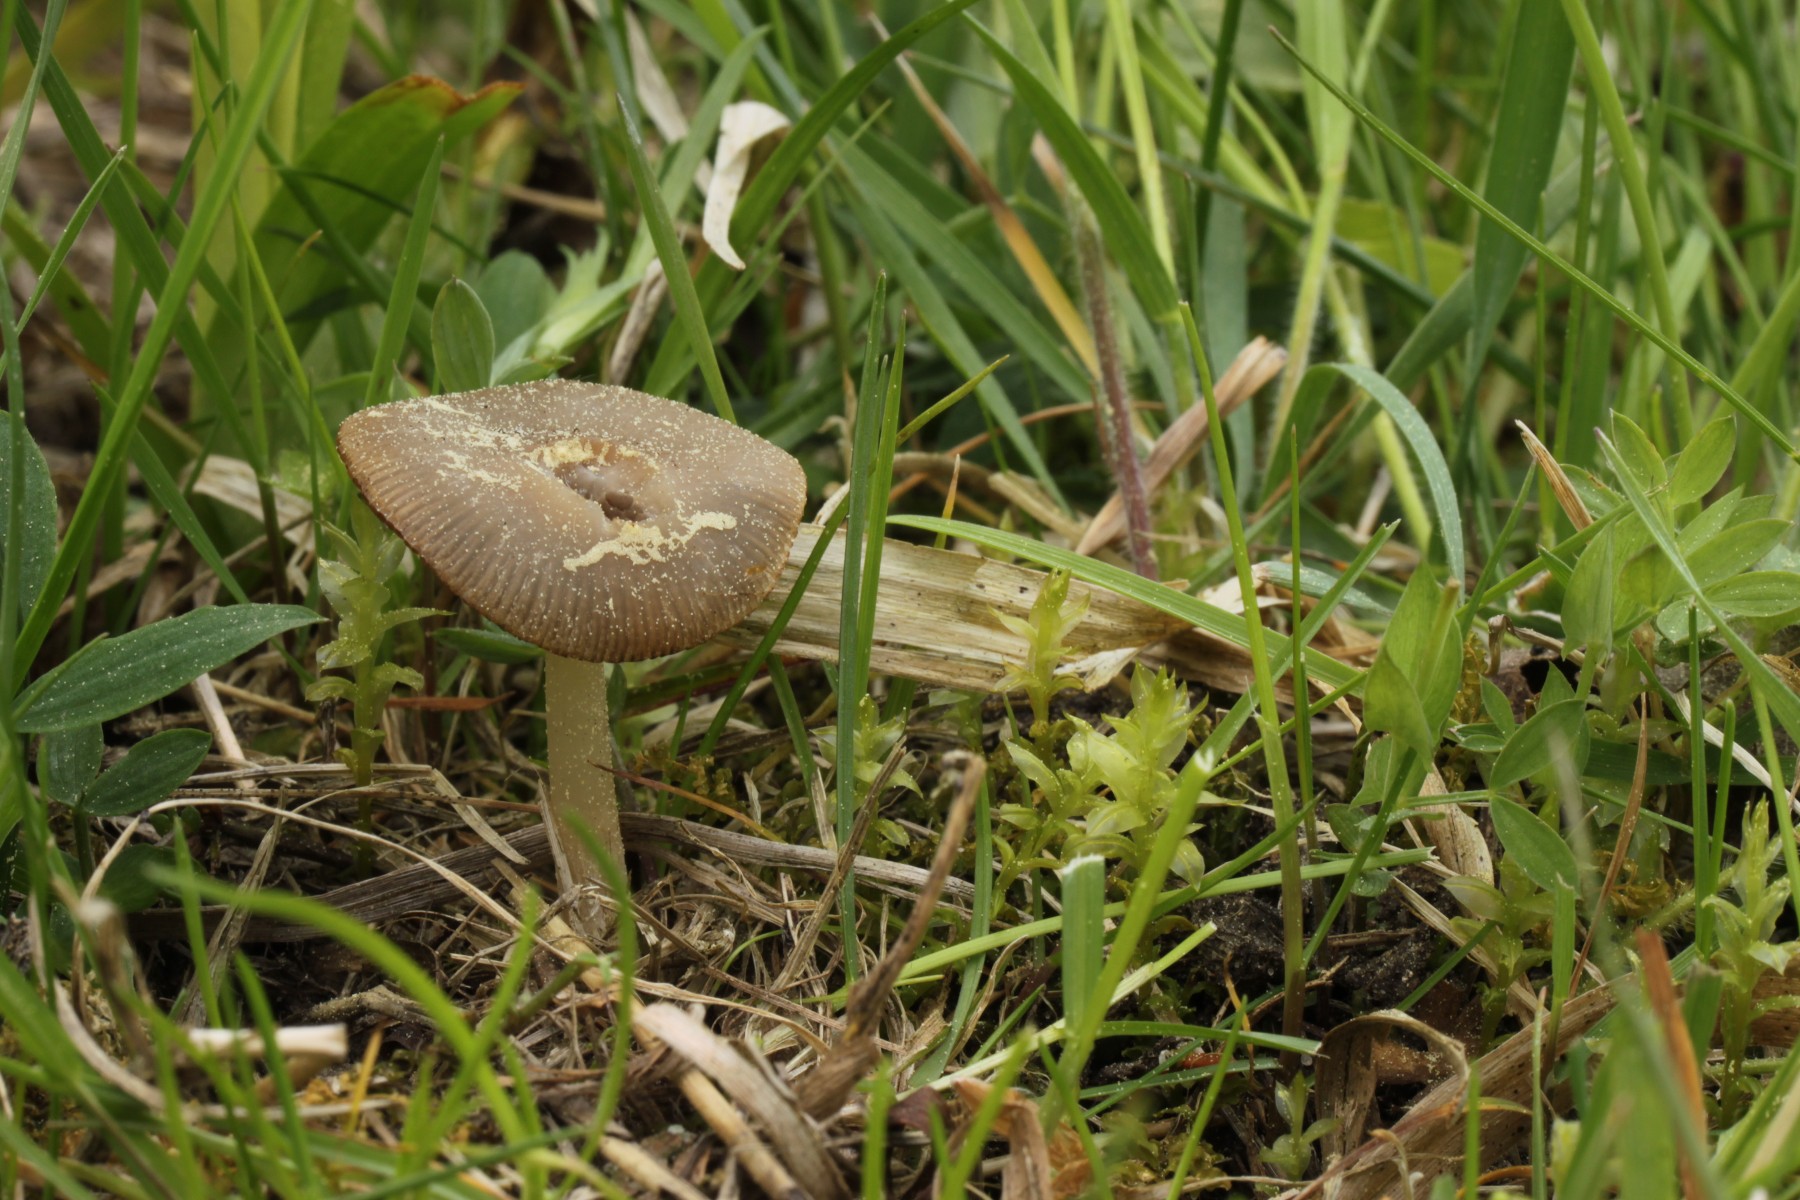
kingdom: Fungi
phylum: Basidiomycota
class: Agaricomycetes
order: Agaricales
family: Psathyrellaceae
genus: Psathyrella
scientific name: Psathyrella spadiceogrisea
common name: gråbrun mørkhat
